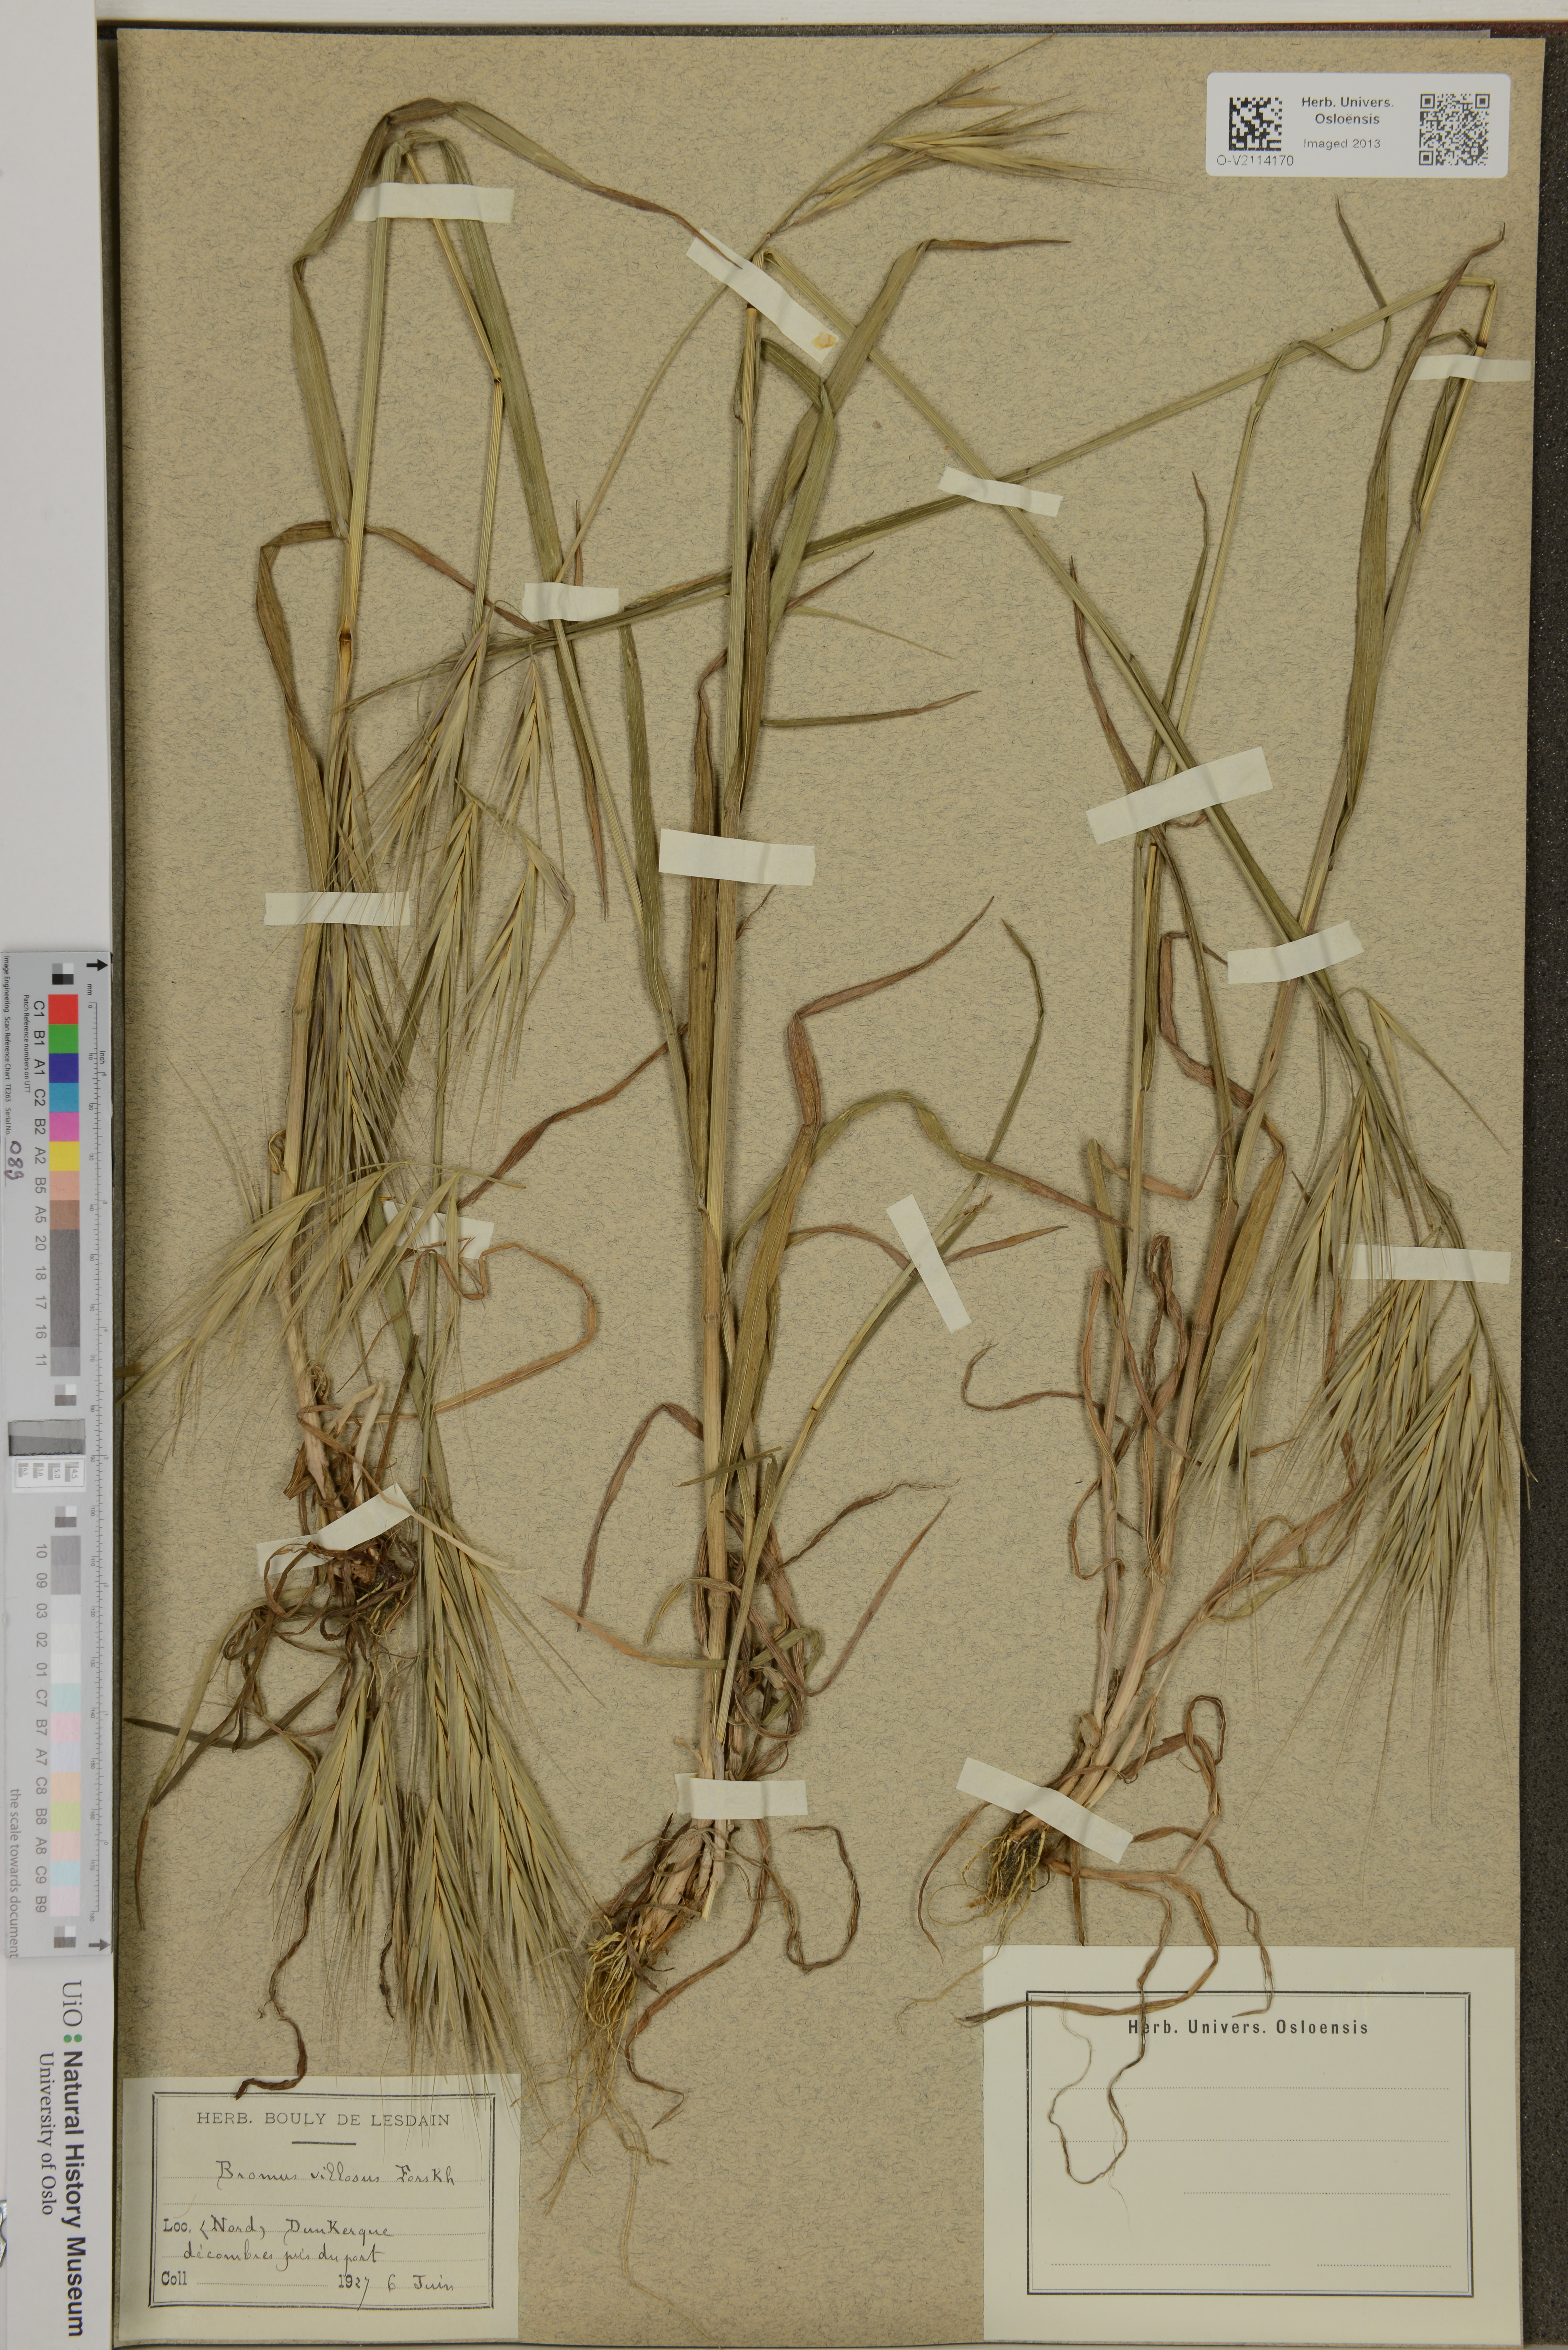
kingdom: Plantae
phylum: Tracheophyta
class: Liliopsida
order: Poales
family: Poaceae
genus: Bromus
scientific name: Bromus diandrus
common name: Ripgut brome
